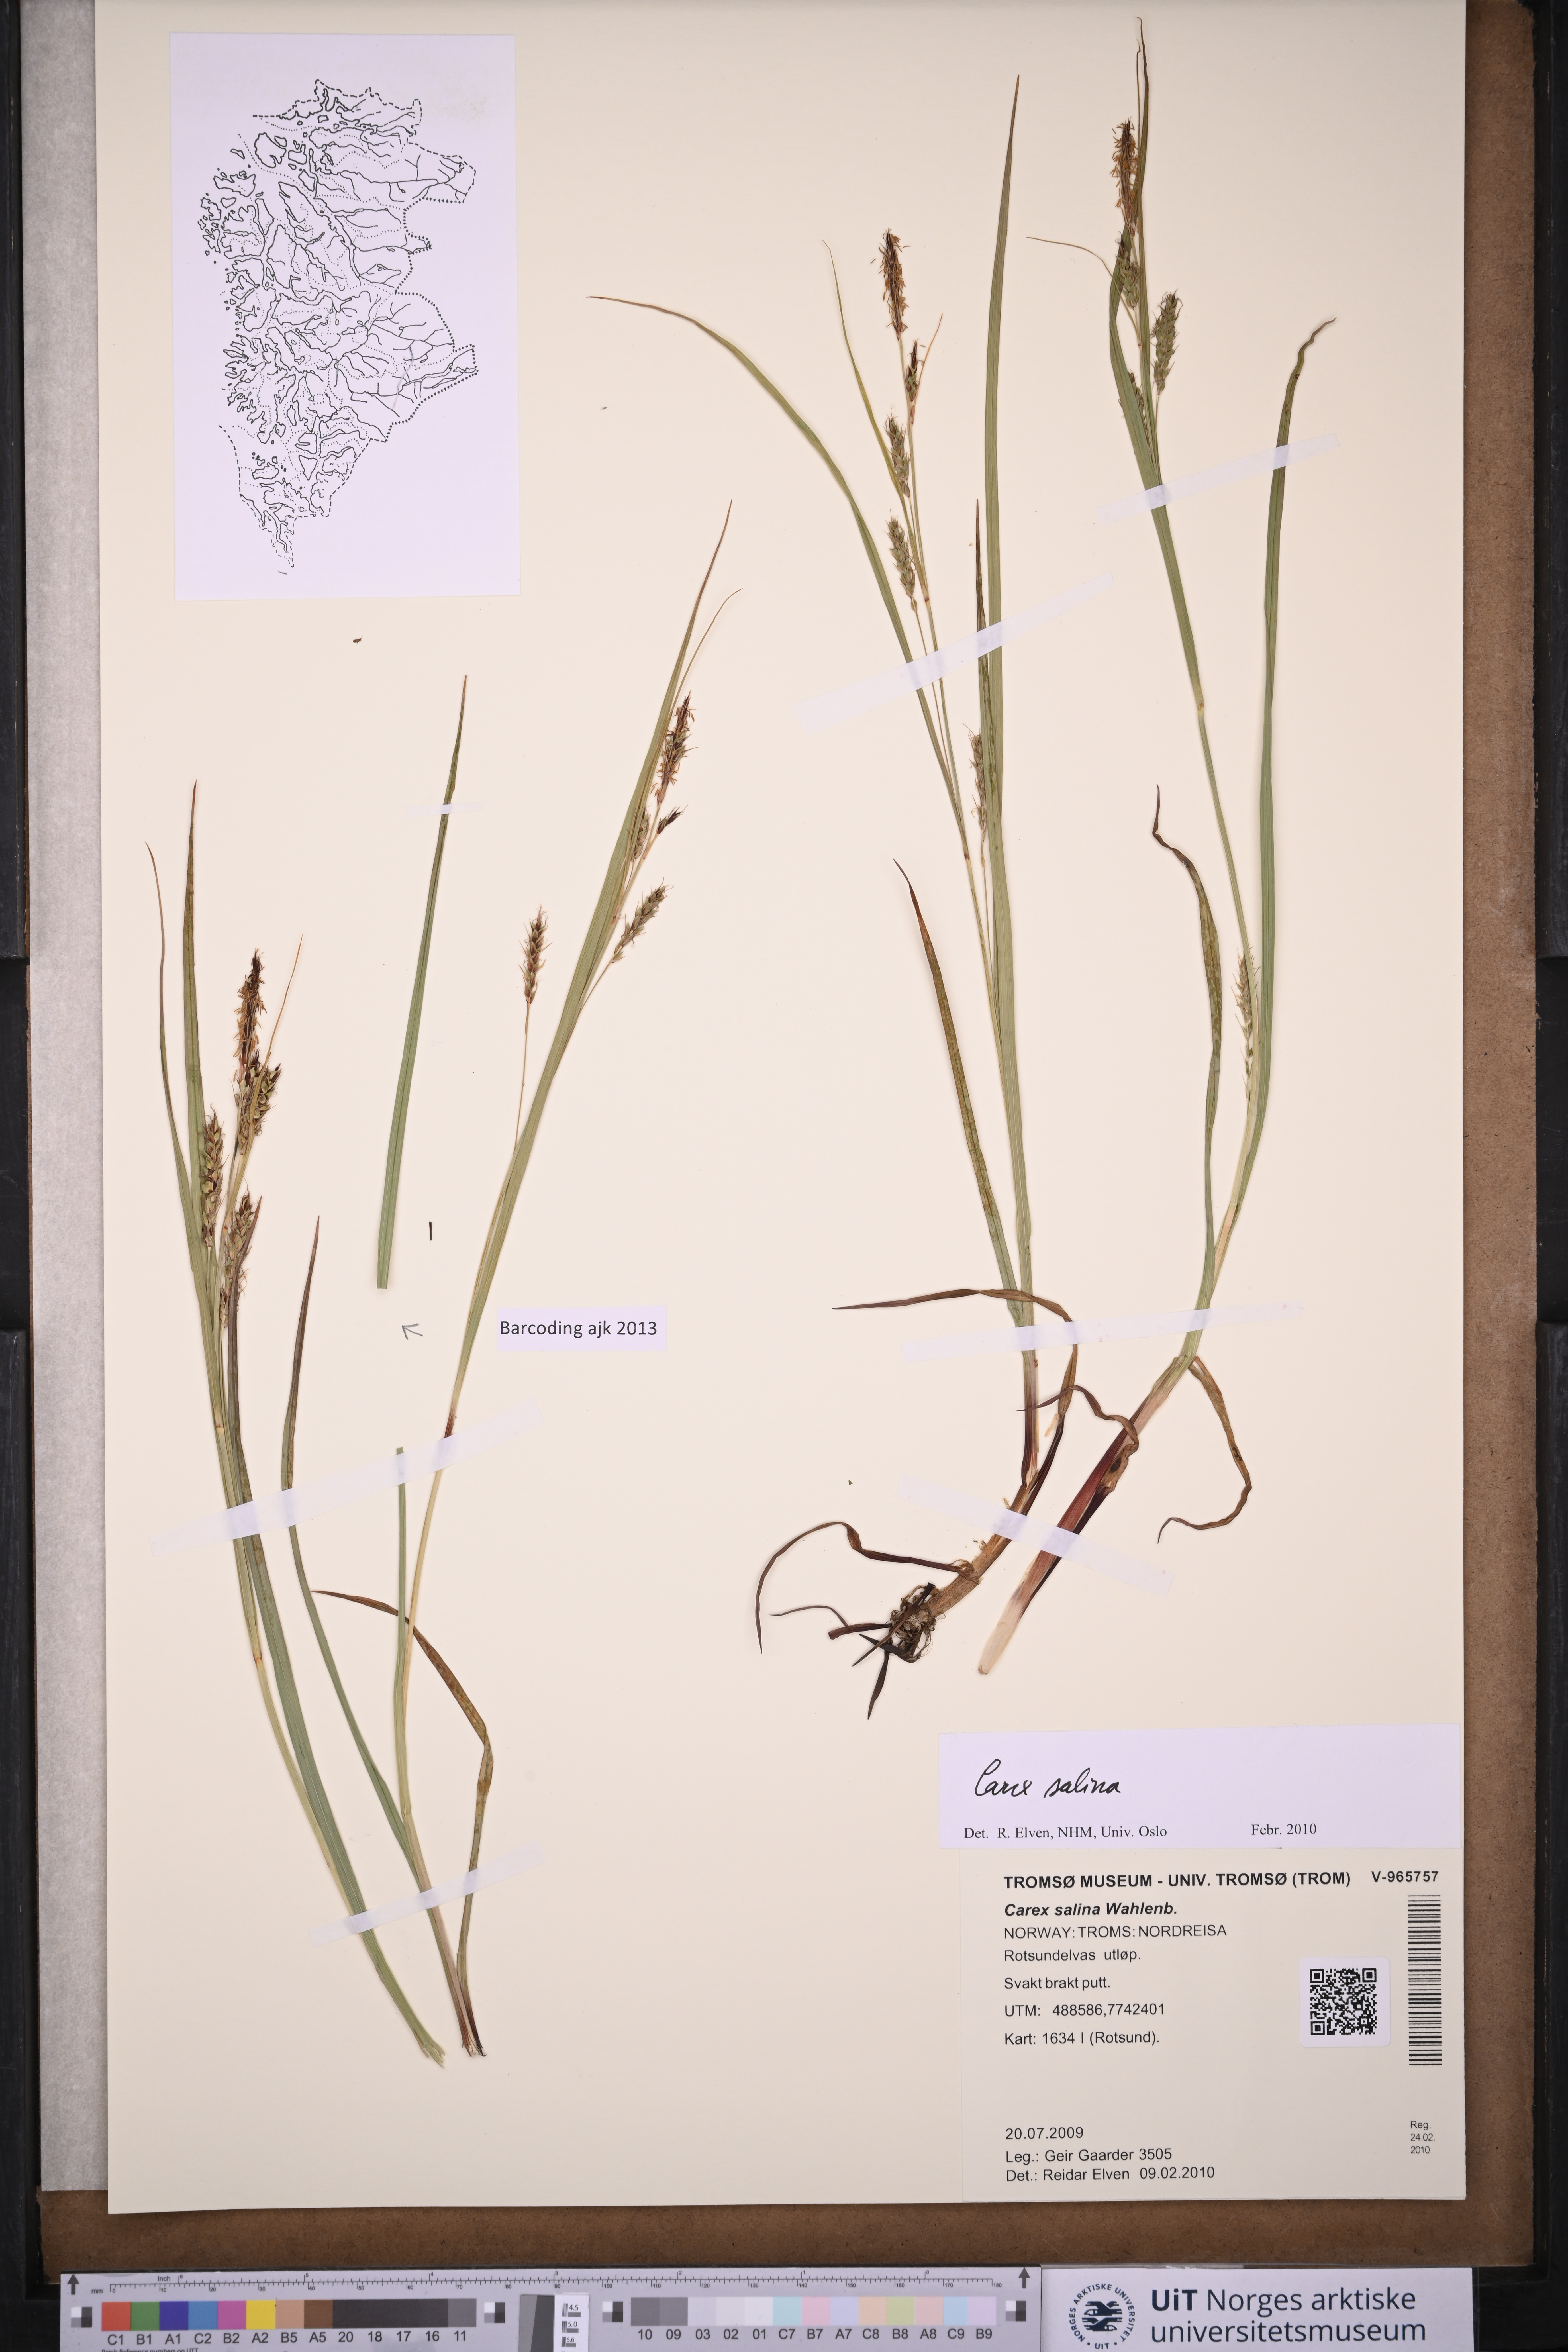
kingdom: Plantae
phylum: Tracheophyta
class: Liliopsida
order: Poales
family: Cyperaceae
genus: Carex
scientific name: Carex salina
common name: Saltmarsh sedge
